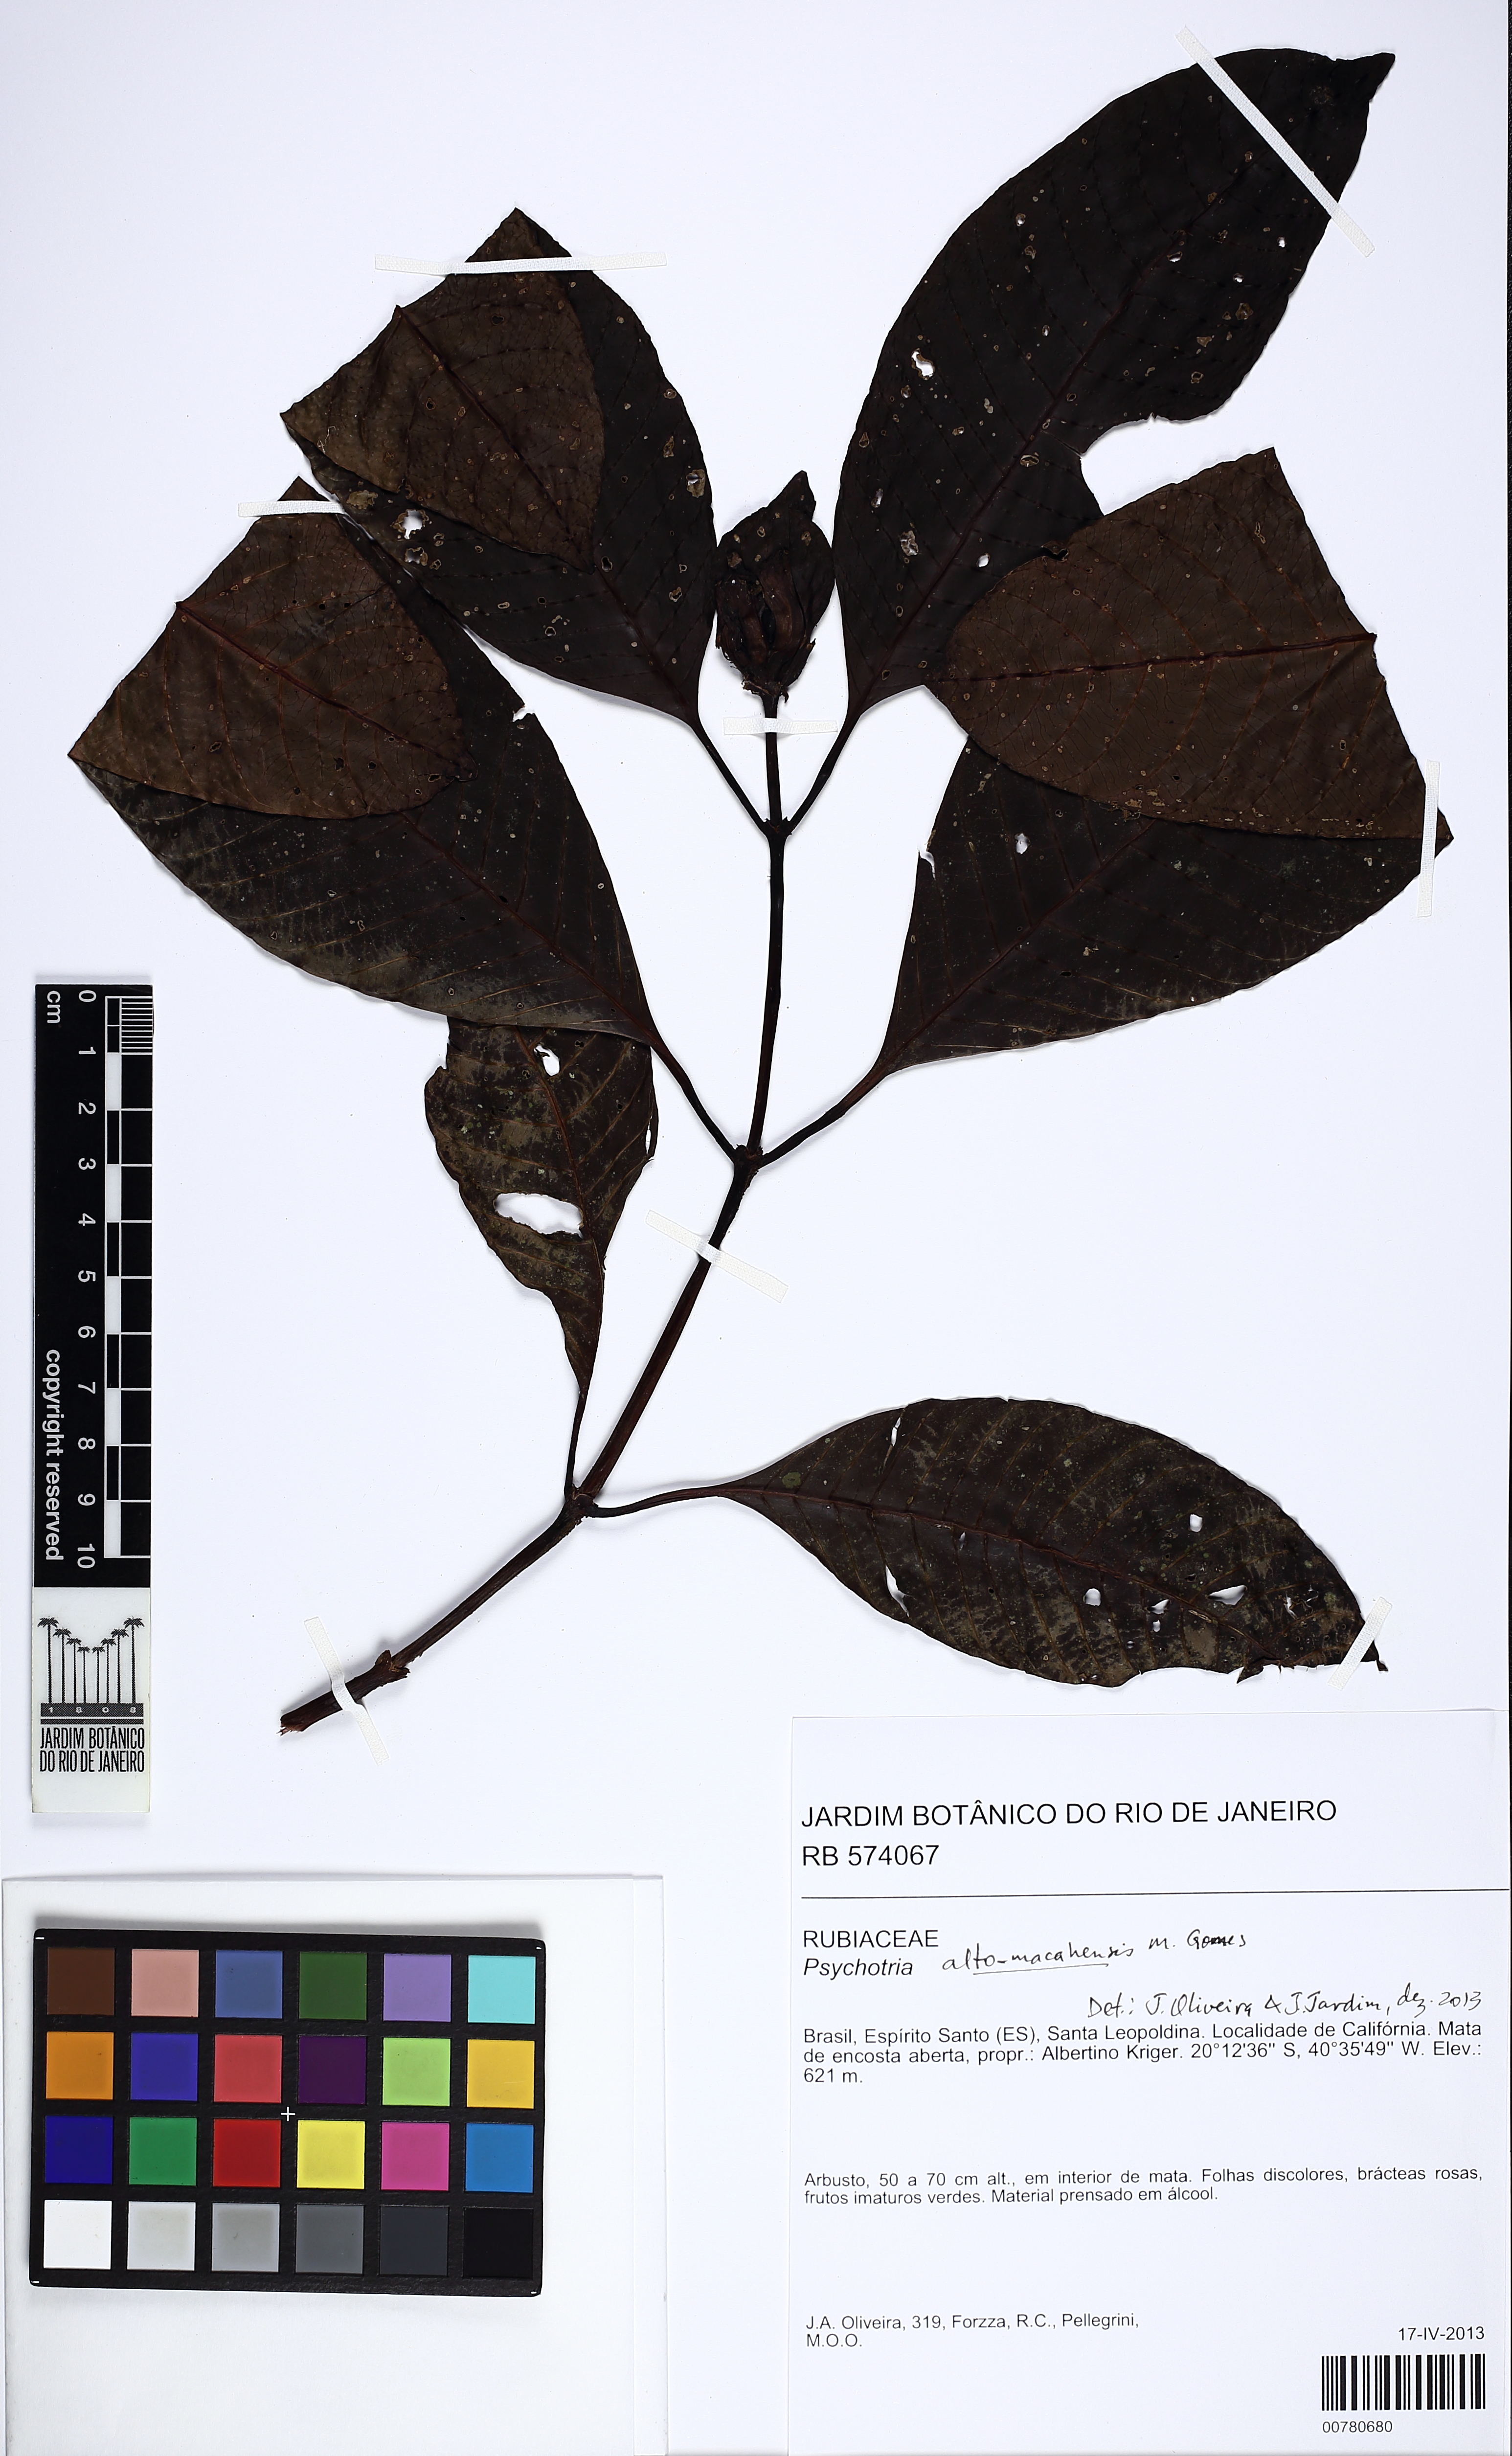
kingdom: Plantae
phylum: Tracheophyta
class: Magnoliopsida
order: Gentianales
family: Rubiaceae
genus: Psychotria
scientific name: Psychotria alto-macahensis
